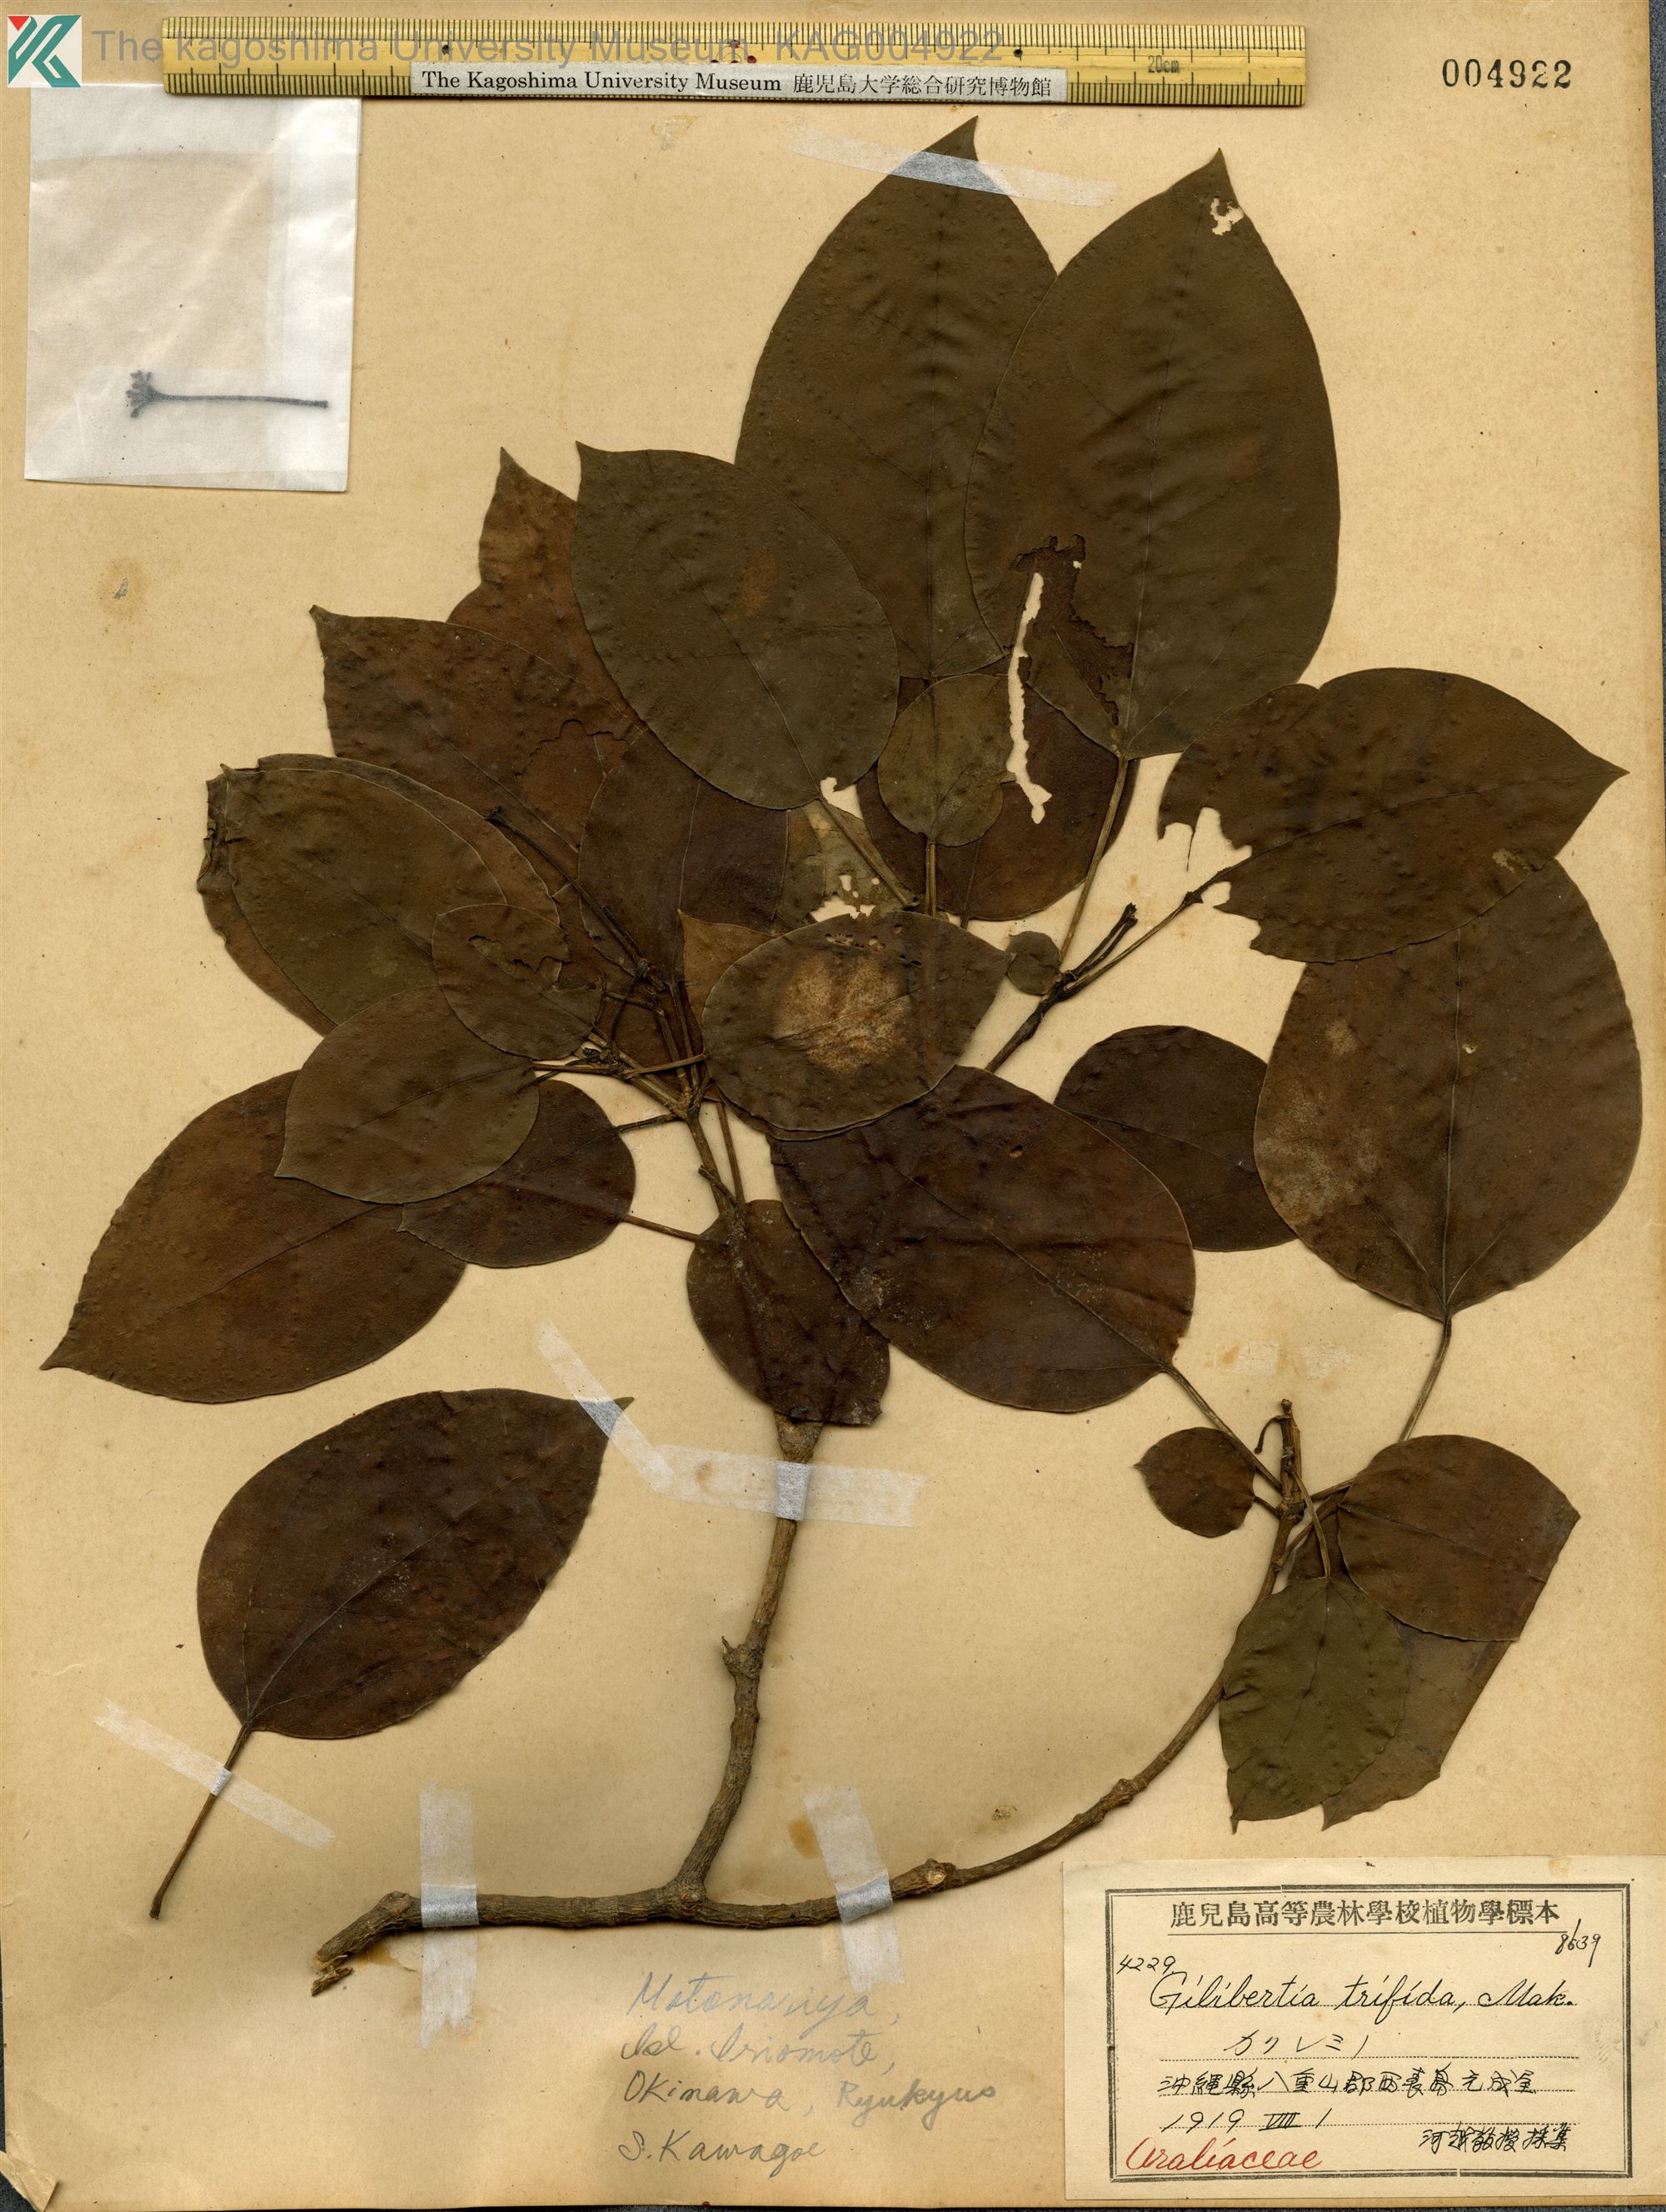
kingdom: Plantae
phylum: Tracheophyta
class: Magnoliopsida
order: Apiales
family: Araliaceae
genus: Dendropanax
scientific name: Dendropanax trifidus
